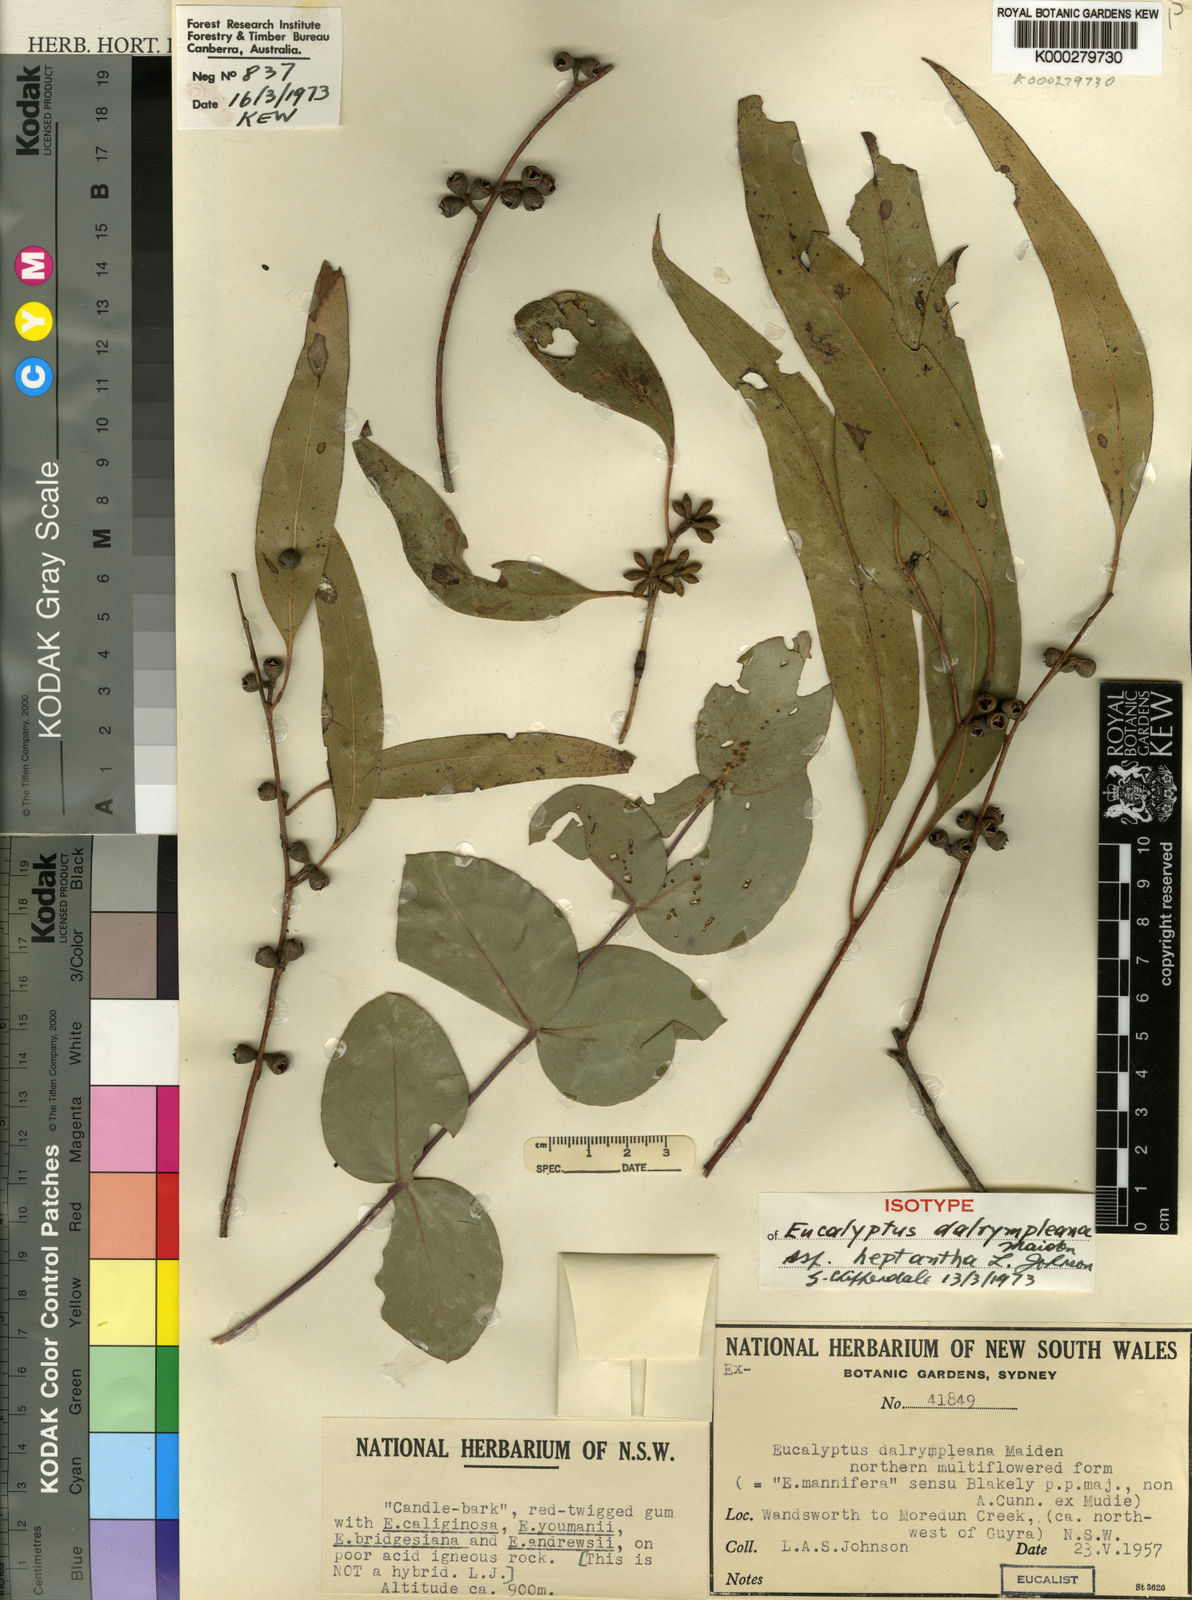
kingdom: Plantae
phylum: Tracheophyta
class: Magnoliopsida
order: Myrtales
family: Myrtaceae
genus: Eucalyptus
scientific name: Eucalyptus dalrympleana
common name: Broad-leaved kindlingbark
